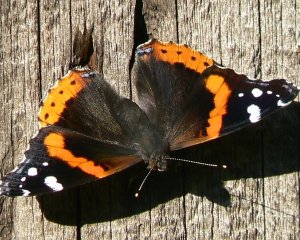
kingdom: Animalia
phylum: Arthropoda
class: Insecta
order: Lepidoptera
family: Nymphalidae
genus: Vanessa
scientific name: Vanessa atalanta
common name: Red Admiral
